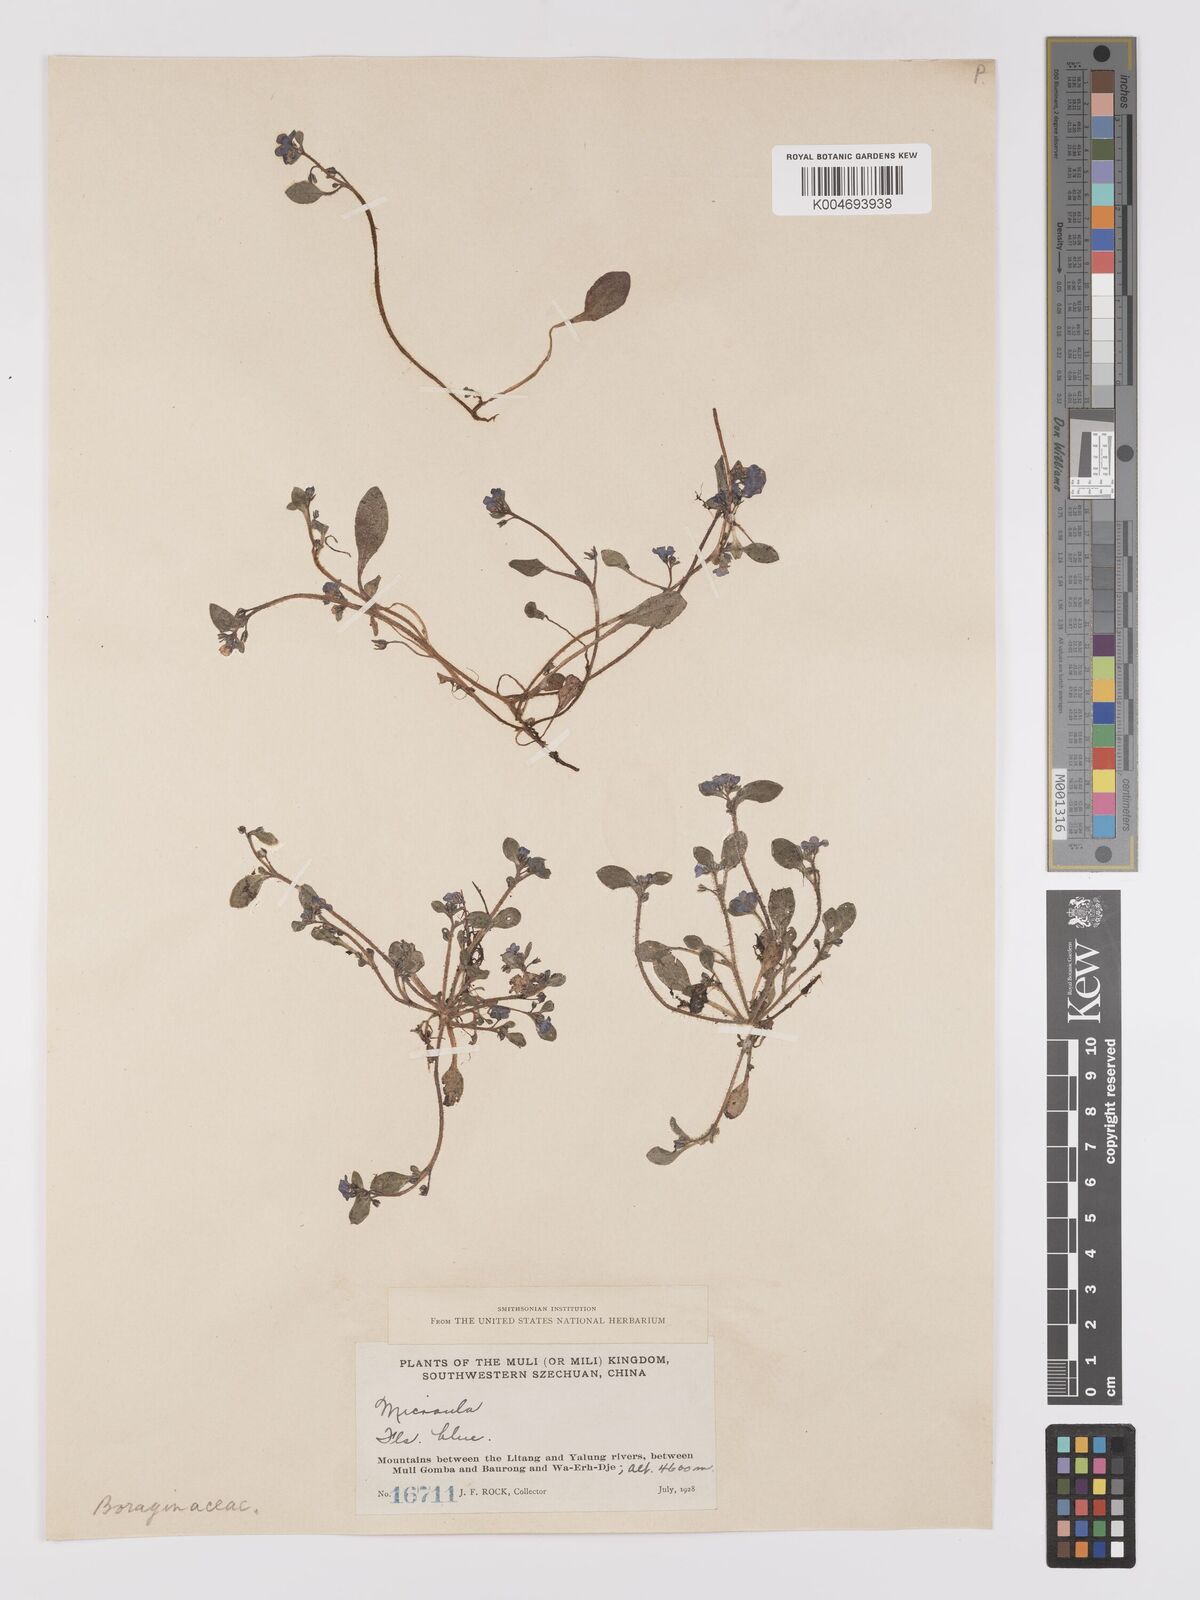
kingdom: Plantae
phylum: Tracheophyta
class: Magnoliopsida
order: Boraginales
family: Boraginaceae
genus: Microula
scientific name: Microula
